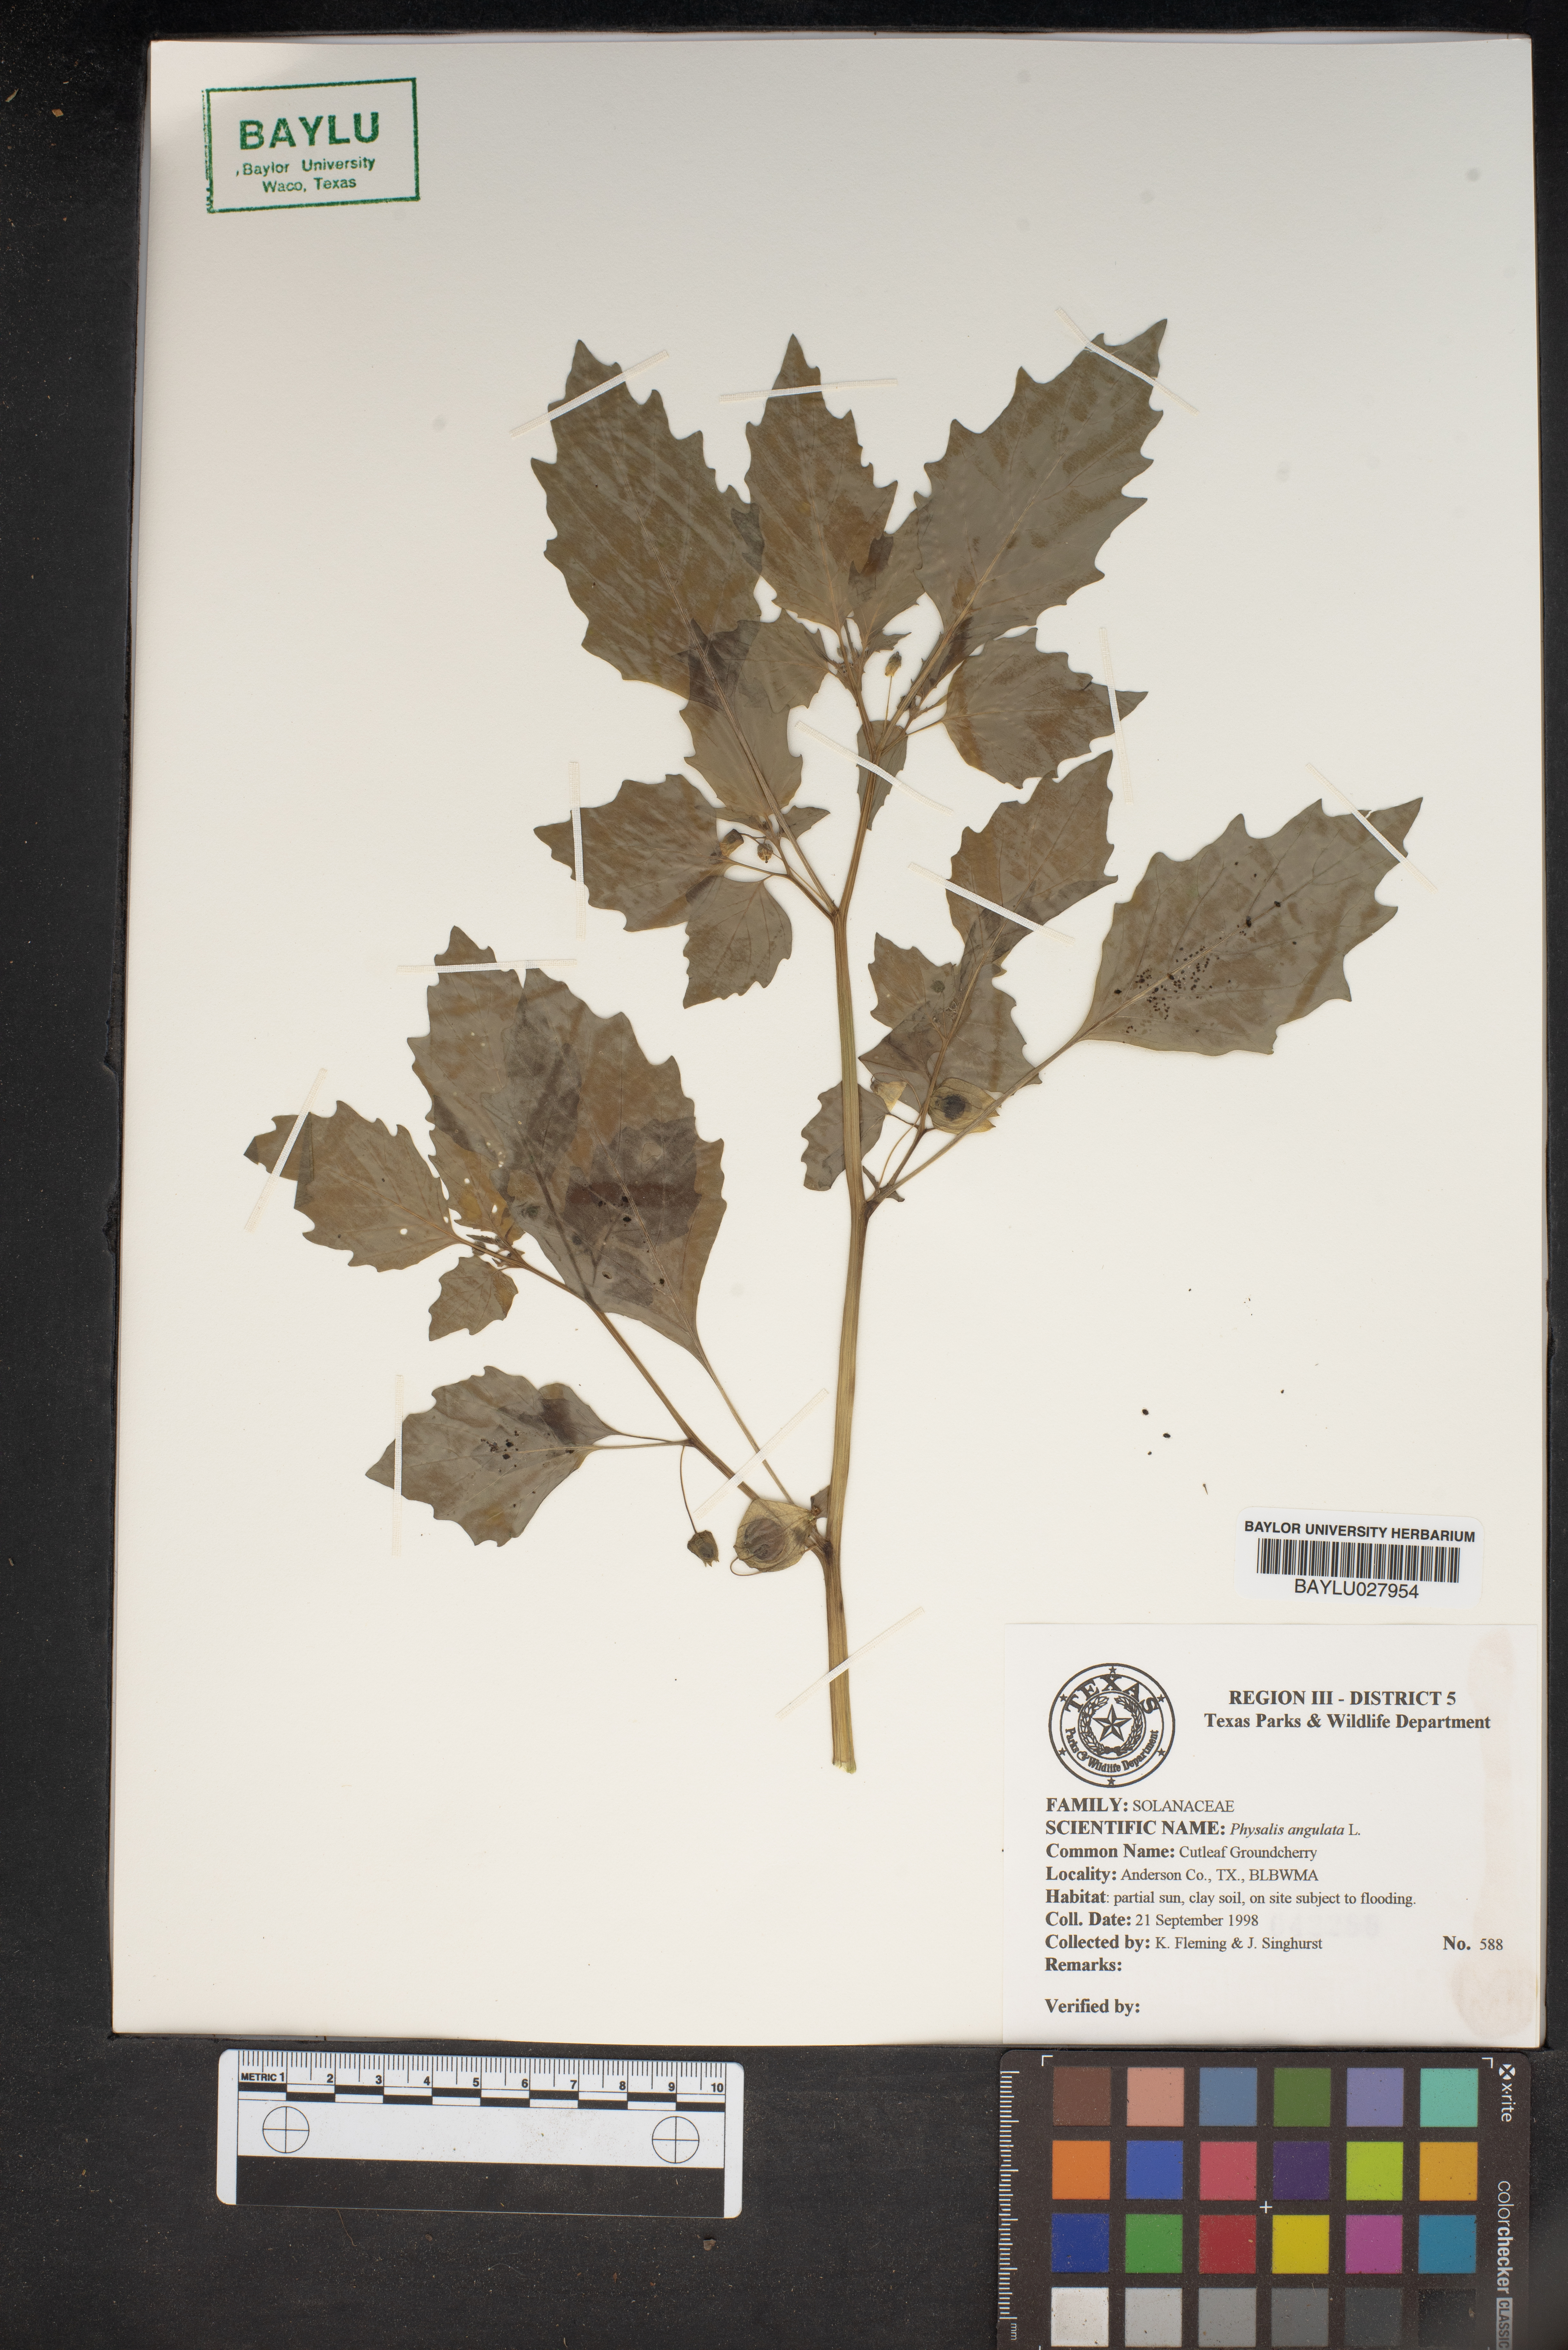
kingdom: Plantae
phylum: Tracheophyta
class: Magnoliopsida
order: Solanales
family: Solanaceae
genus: Physalis
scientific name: Physalis angulata
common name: Angular winter-cherry
